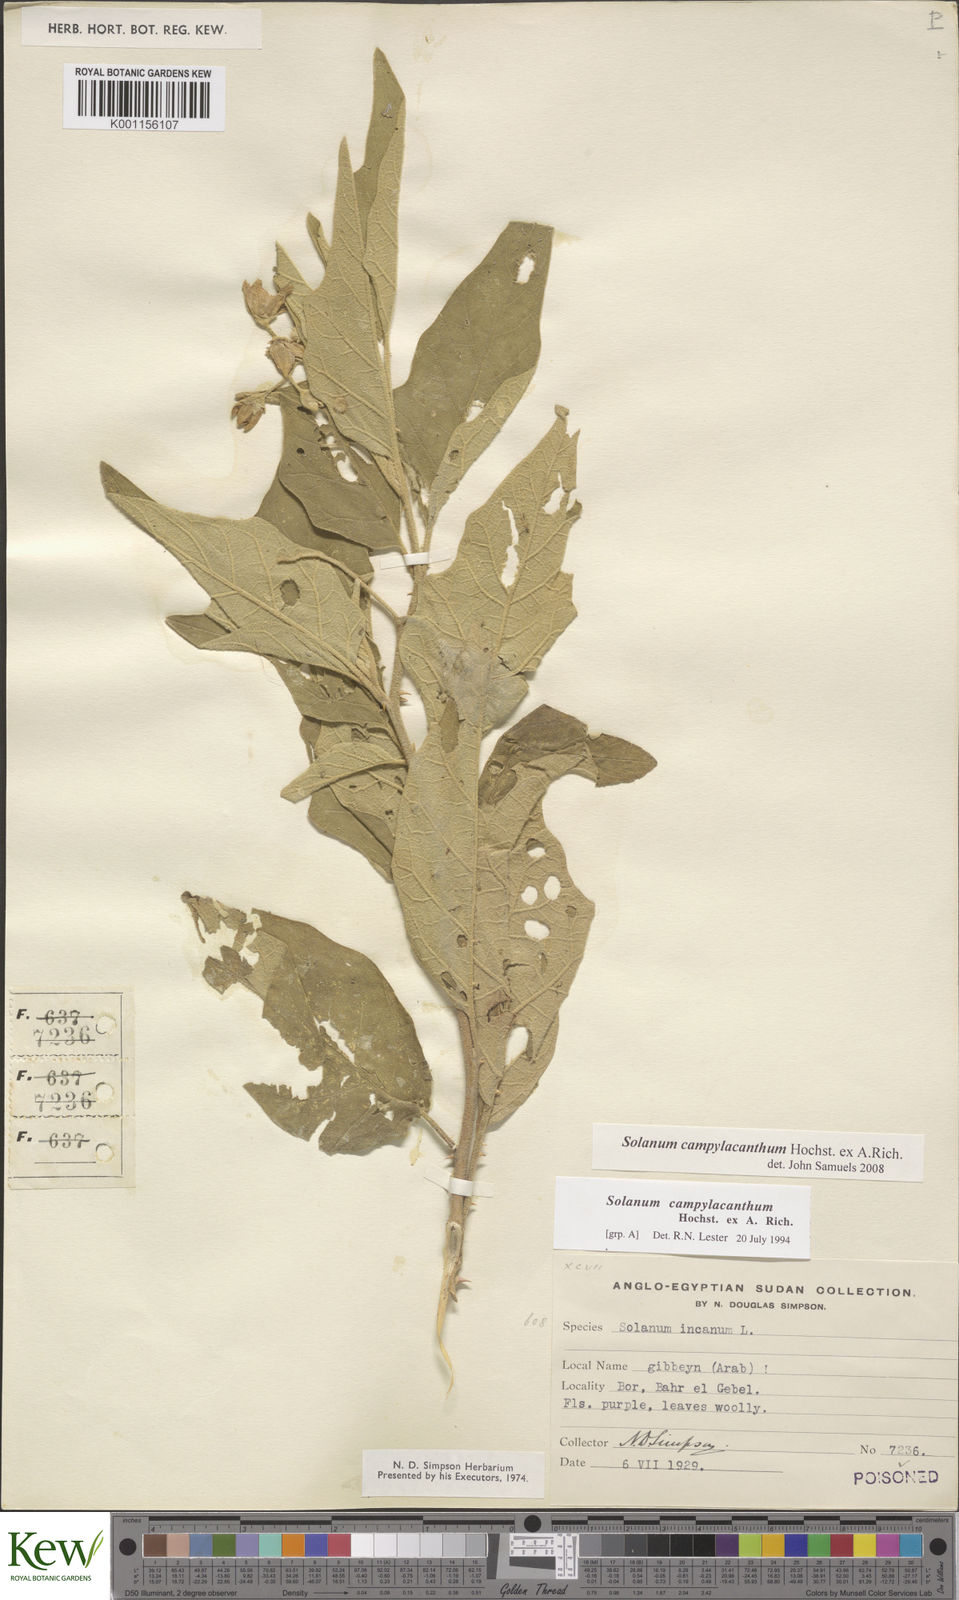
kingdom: Plantae
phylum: Tracheophyta
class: Magnoliopsida
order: Solanales
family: Solanaceae
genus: Solanum
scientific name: Solanum campylacanthum
